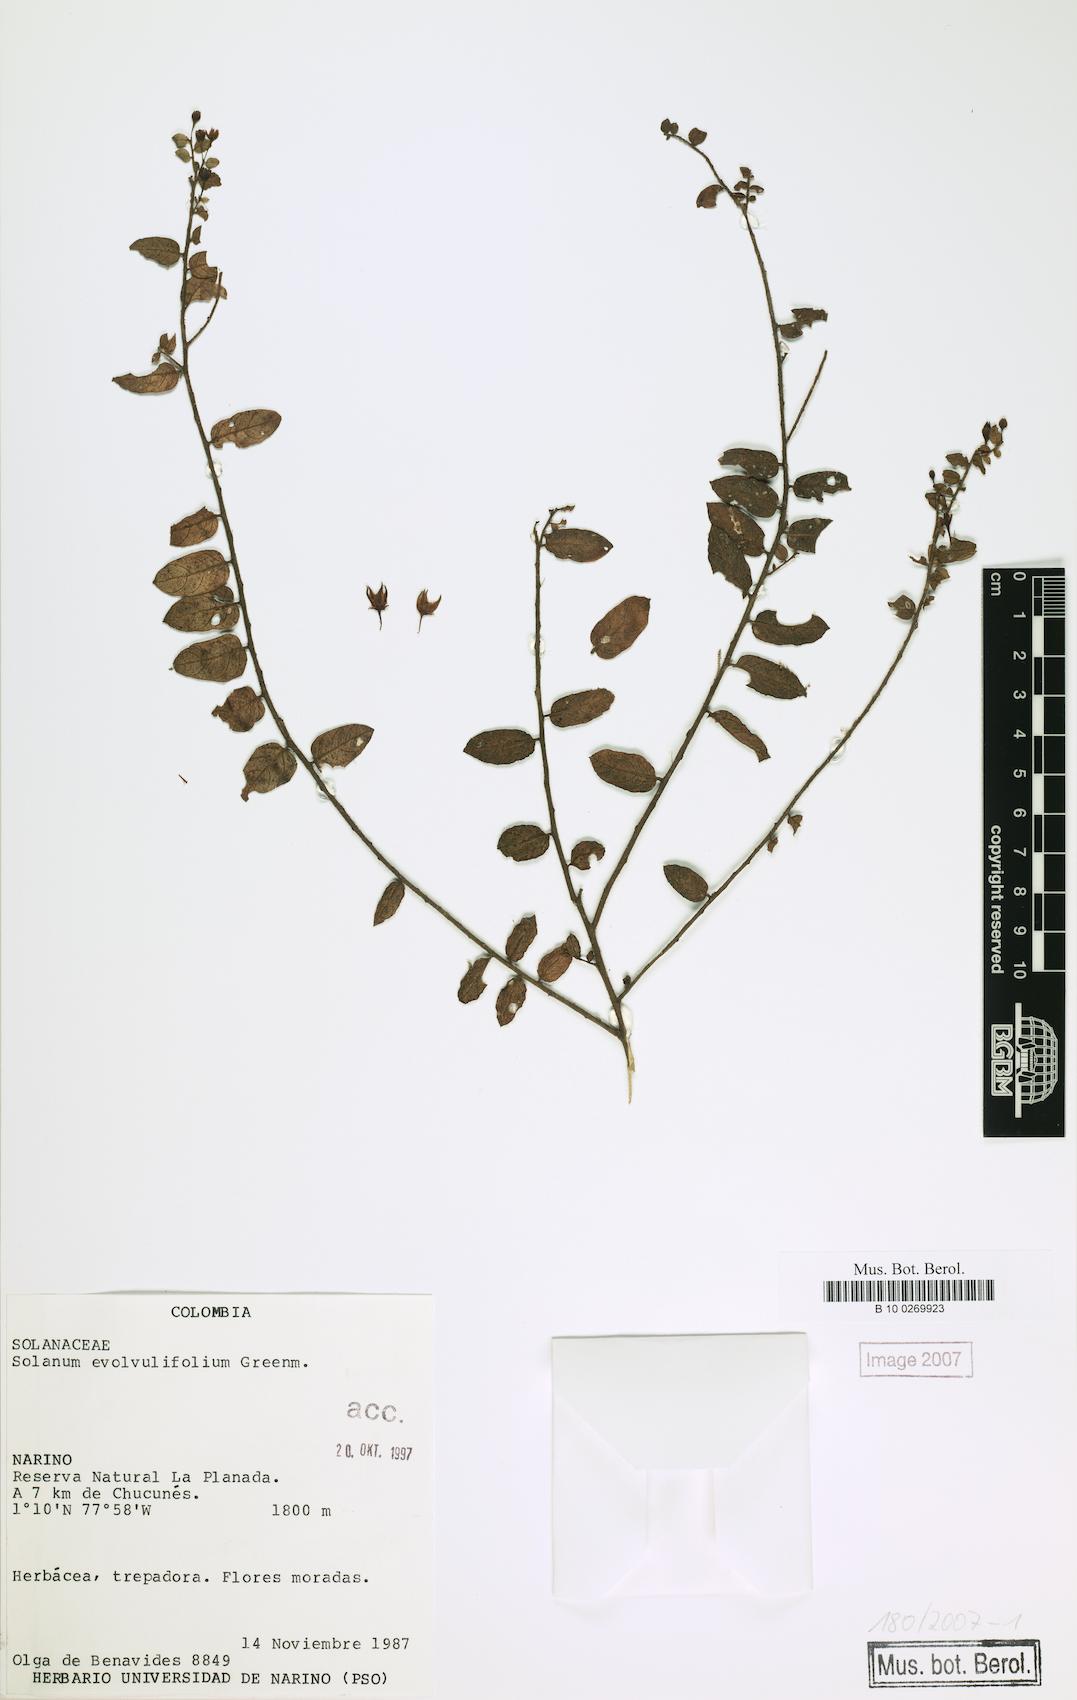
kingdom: Plantae
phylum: Tracheophyta
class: Magnoliopsida
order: Solanales
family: Solanaceae
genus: Solanum
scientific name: Solanum evolvulifolium
